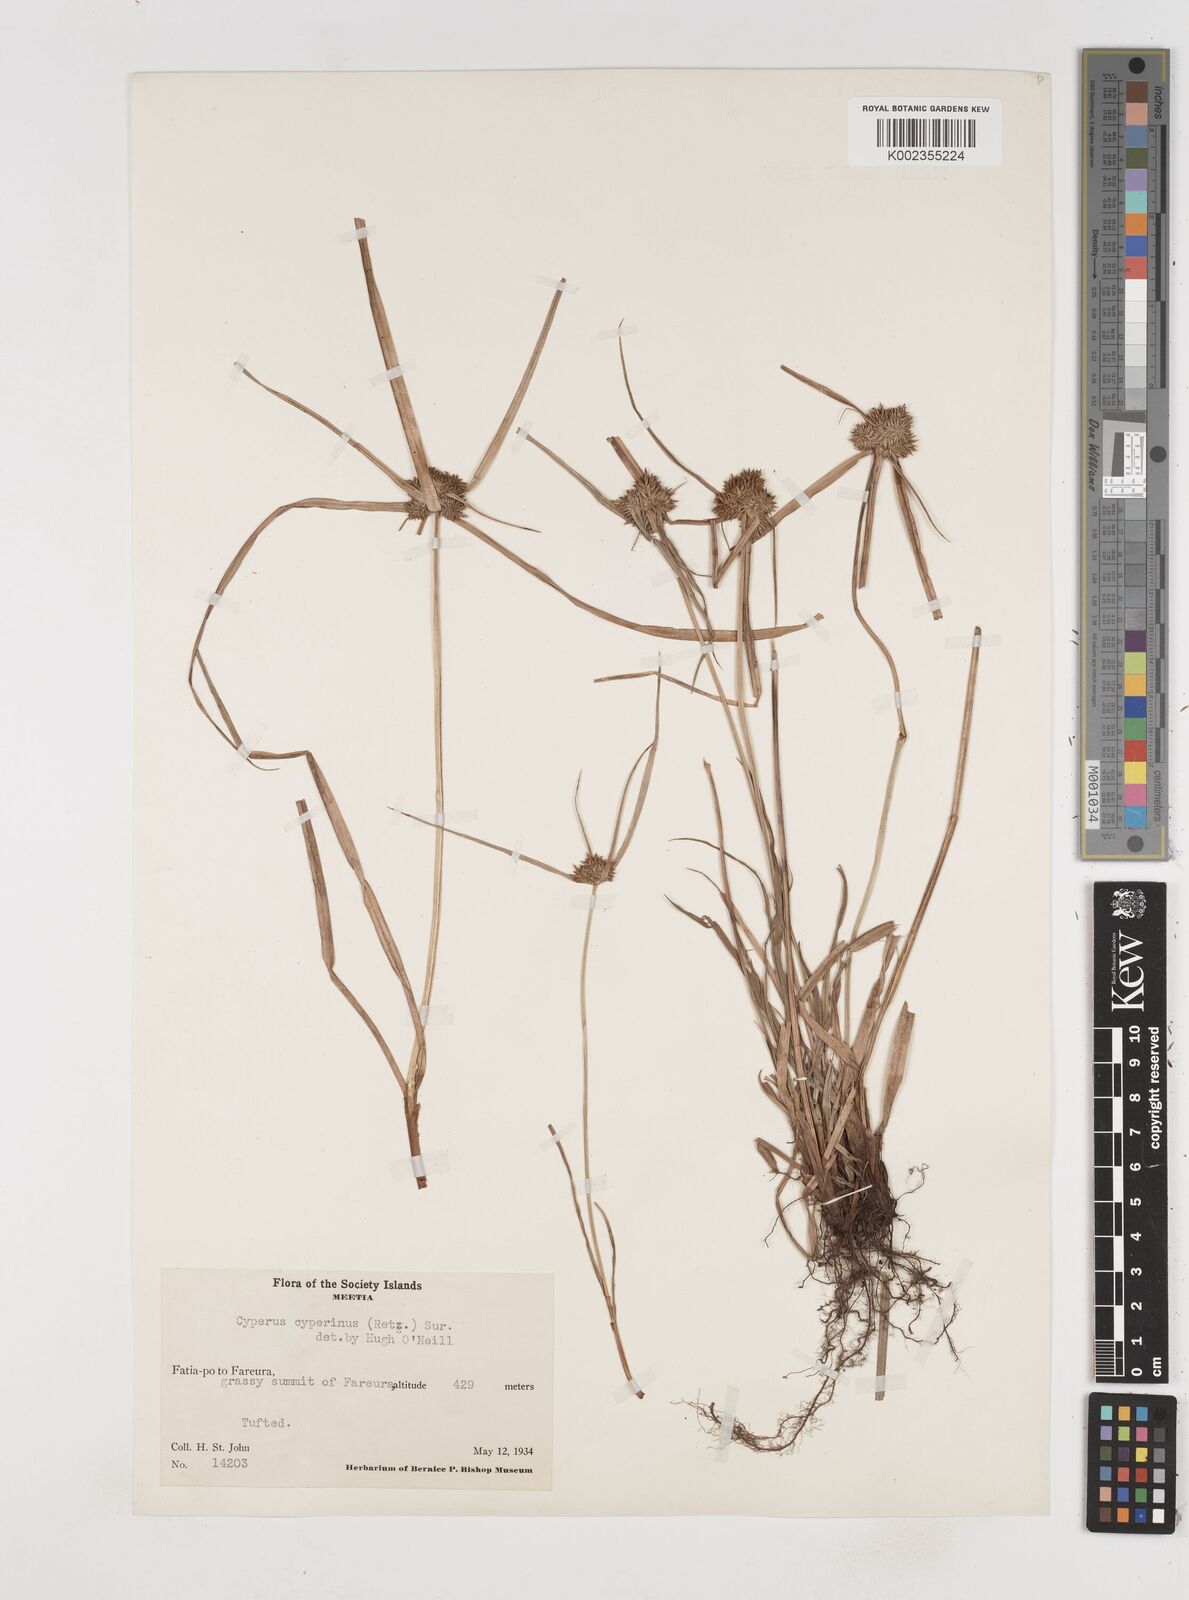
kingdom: Plantae
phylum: Tracheophyta
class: Liliopsida
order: Poales
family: Cyperaceae
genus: Cyperus
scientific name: Cyperus cyperinus
